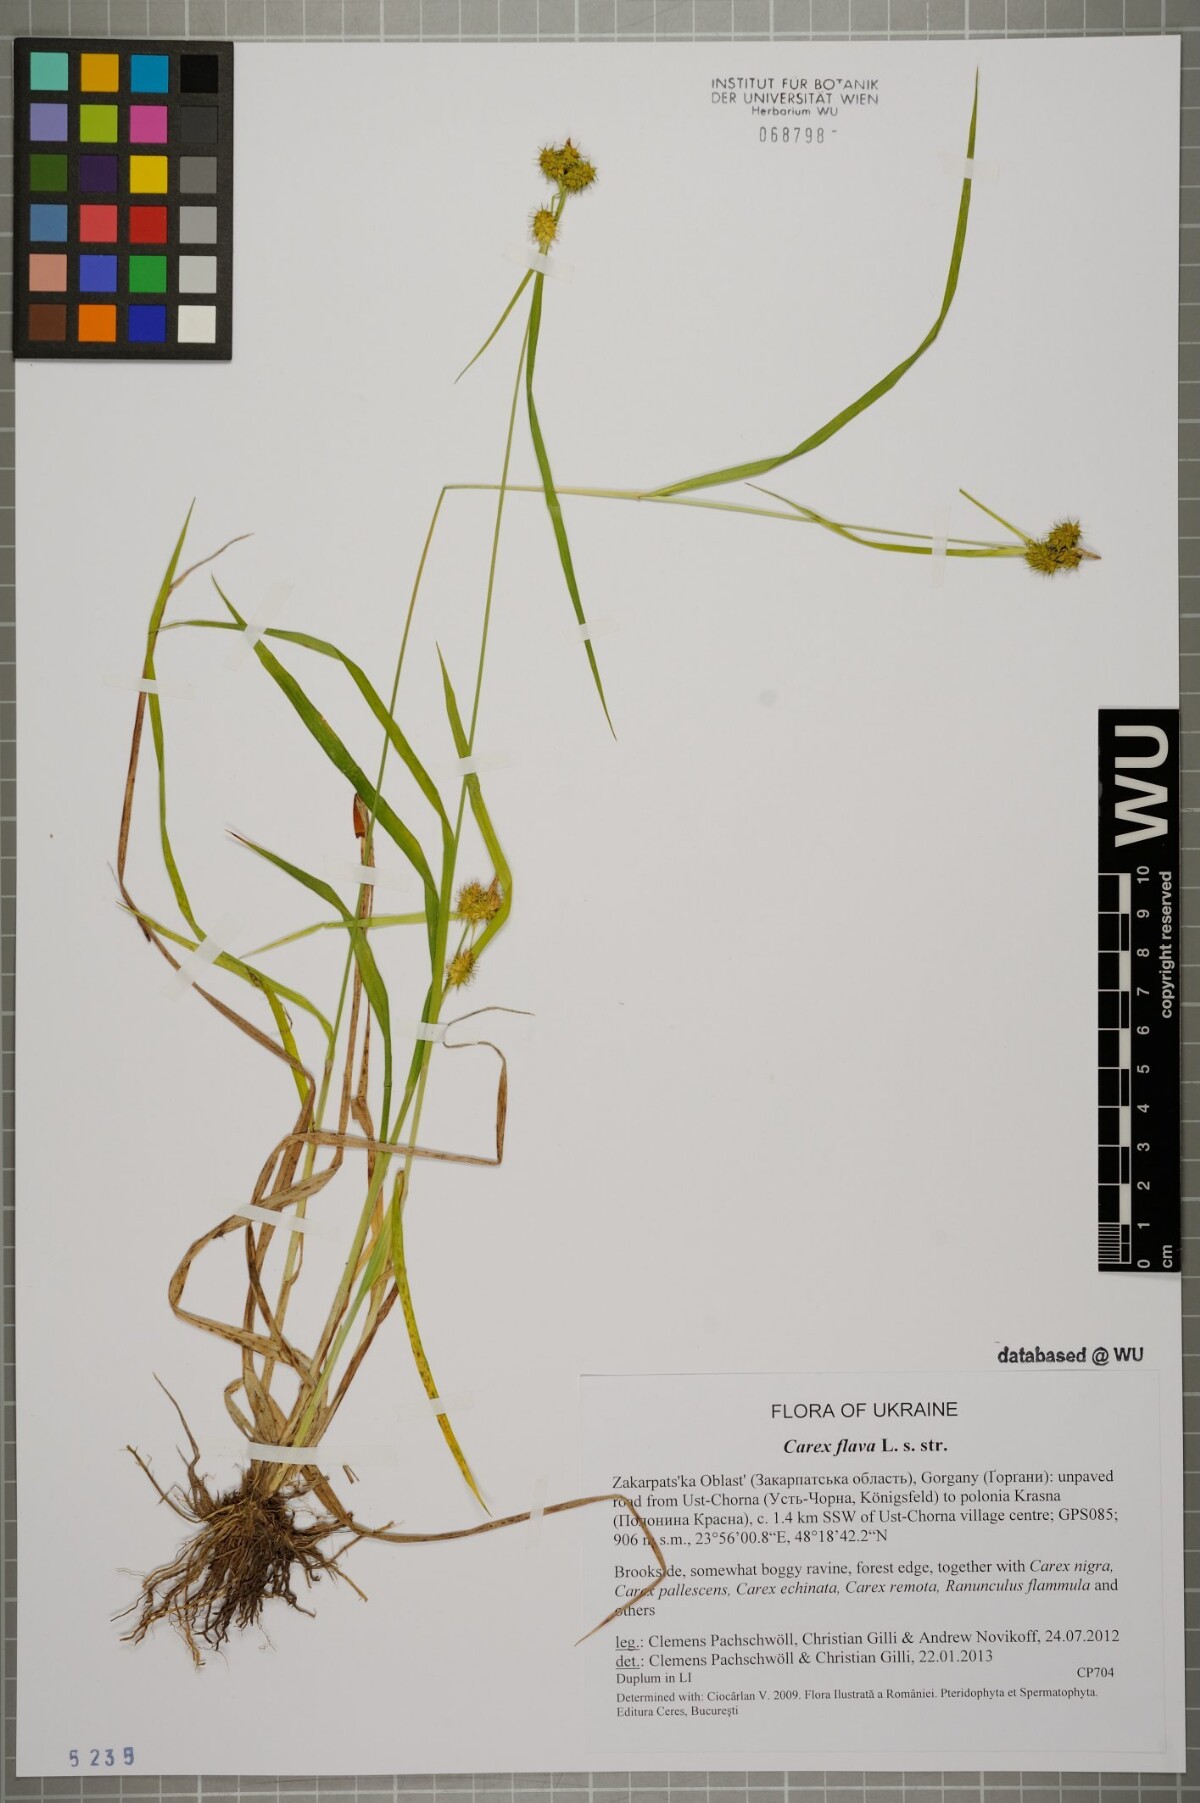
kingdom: Plantae
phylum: Tracheophyta
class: Liliopsida
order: Poales
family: Cyperaceae
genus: Carex
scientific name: Carex flava
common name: Large yellow-sedge
